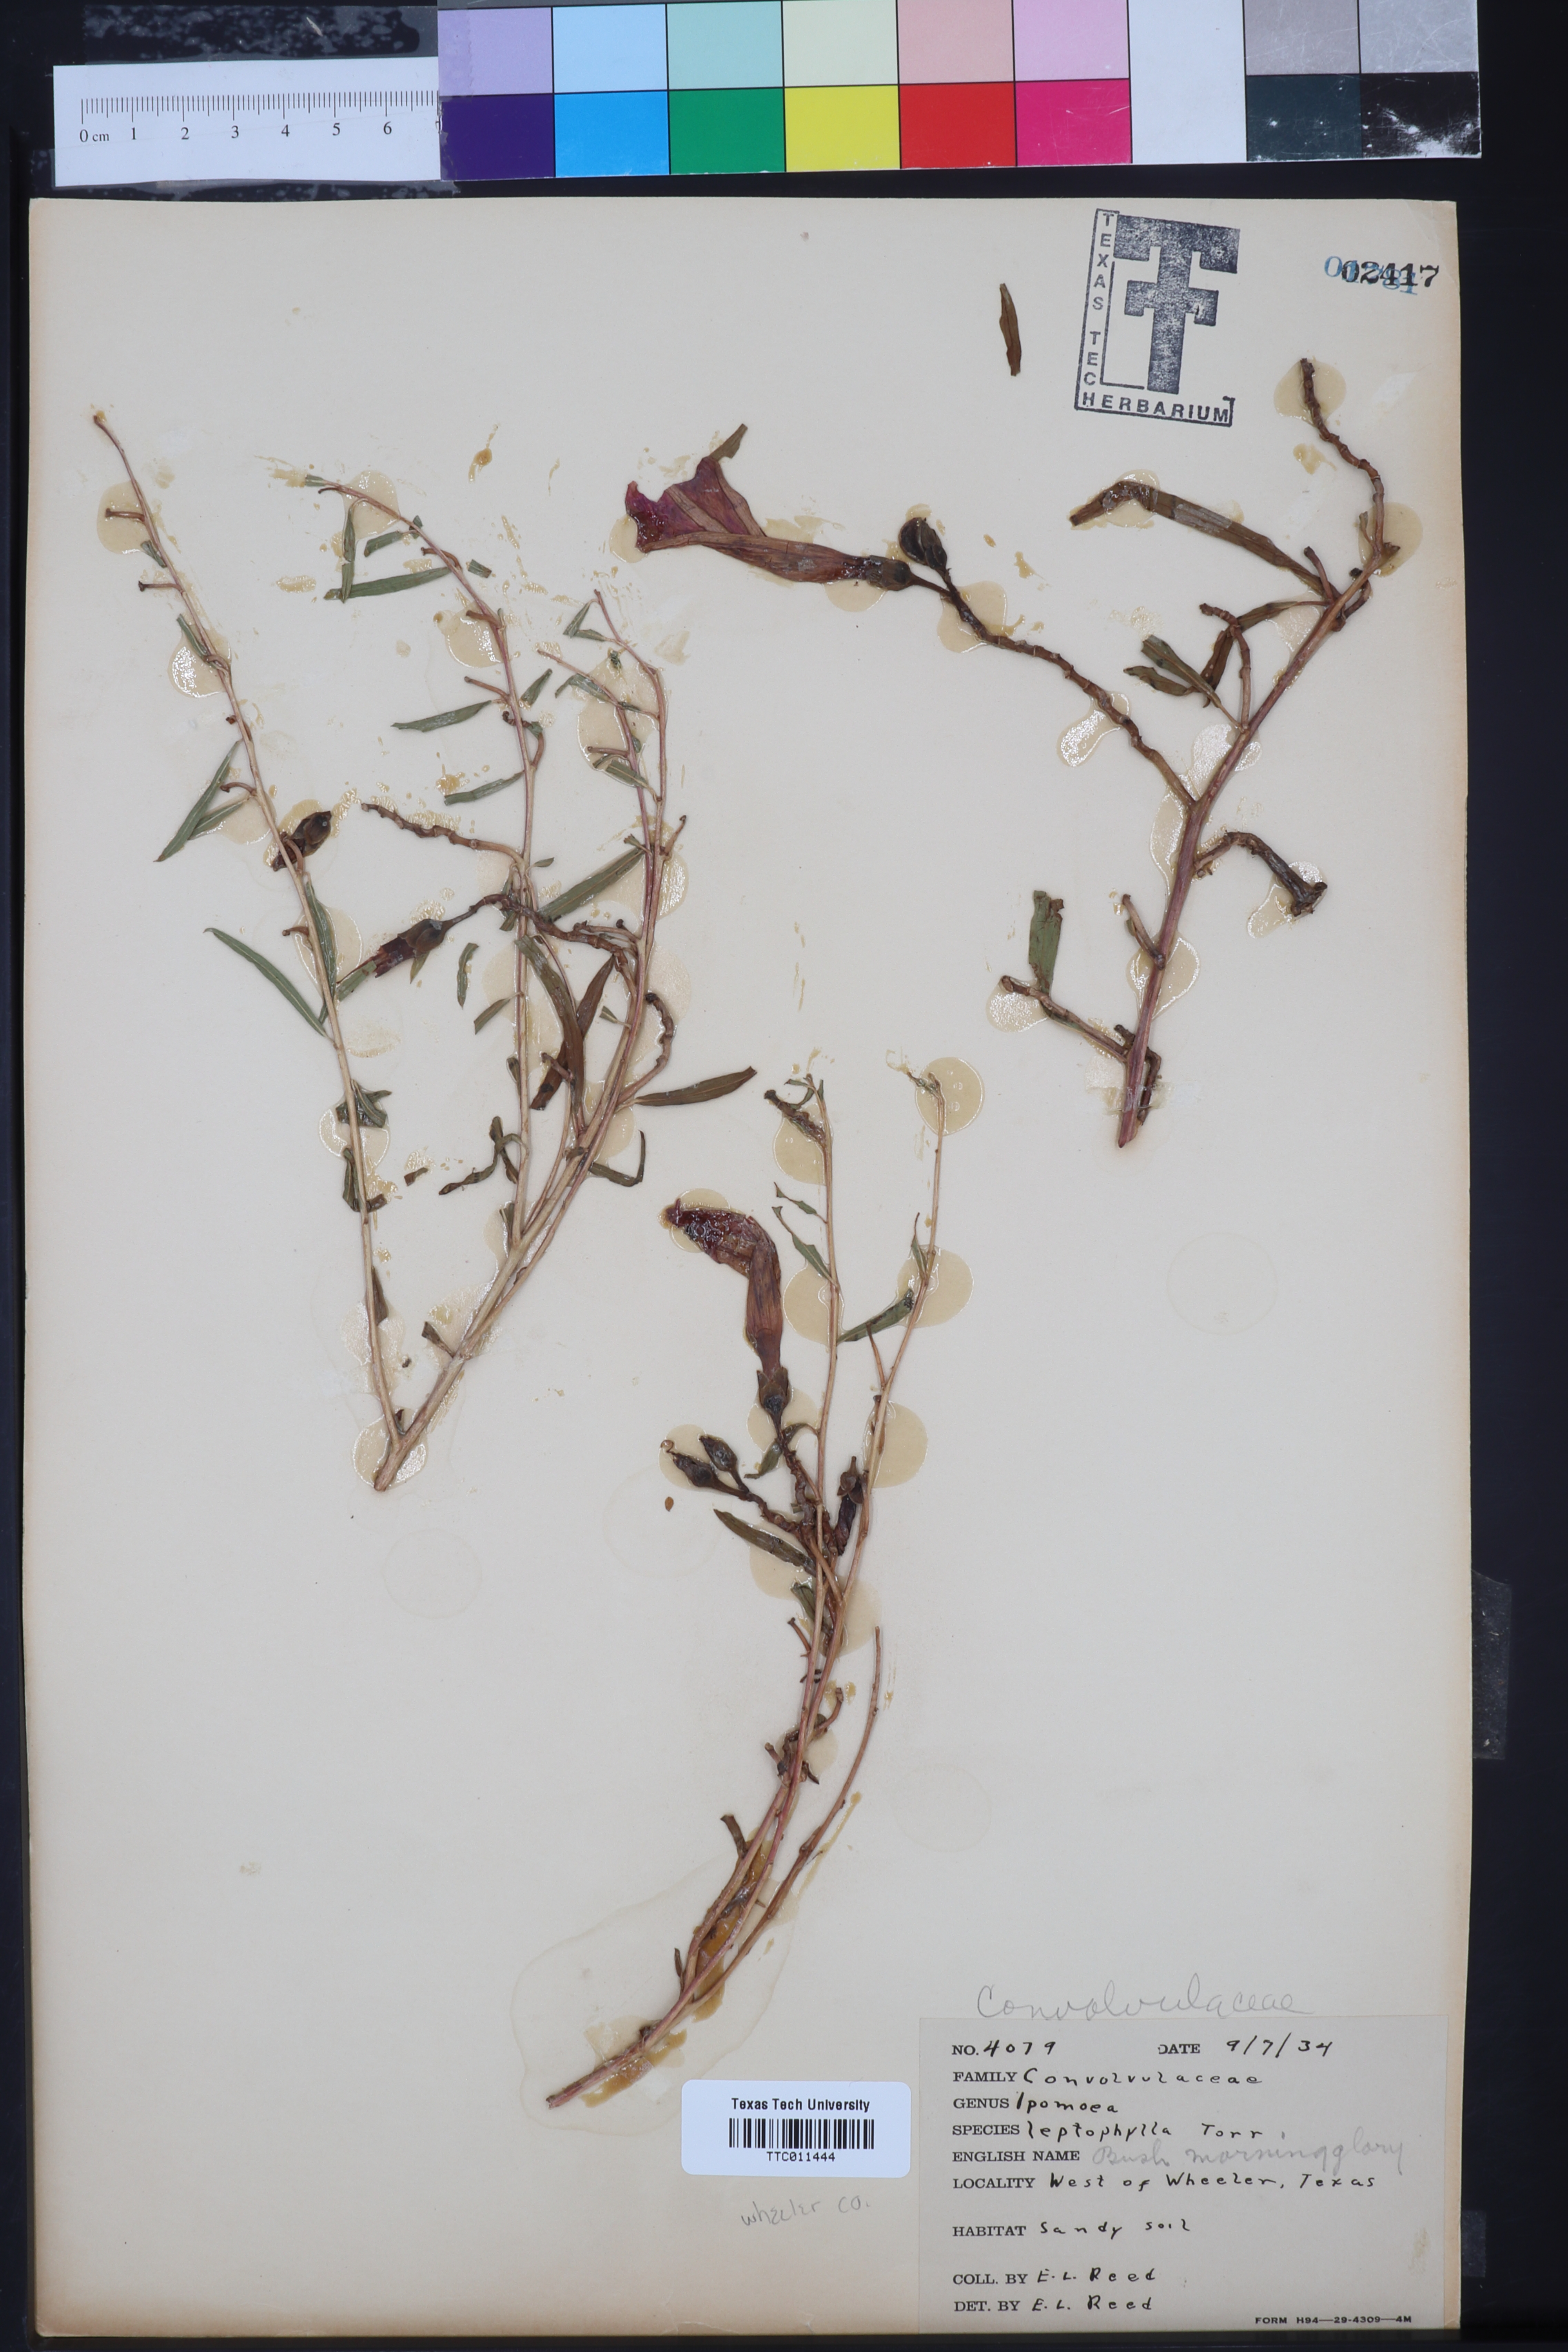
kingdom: Plantae
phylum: Tracheophyta
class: Magnoliopsida
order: Solanales
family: Convolvulaceae
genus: Ipomoea
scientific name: Ipomoea leptophylla
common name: Bush moonflower
